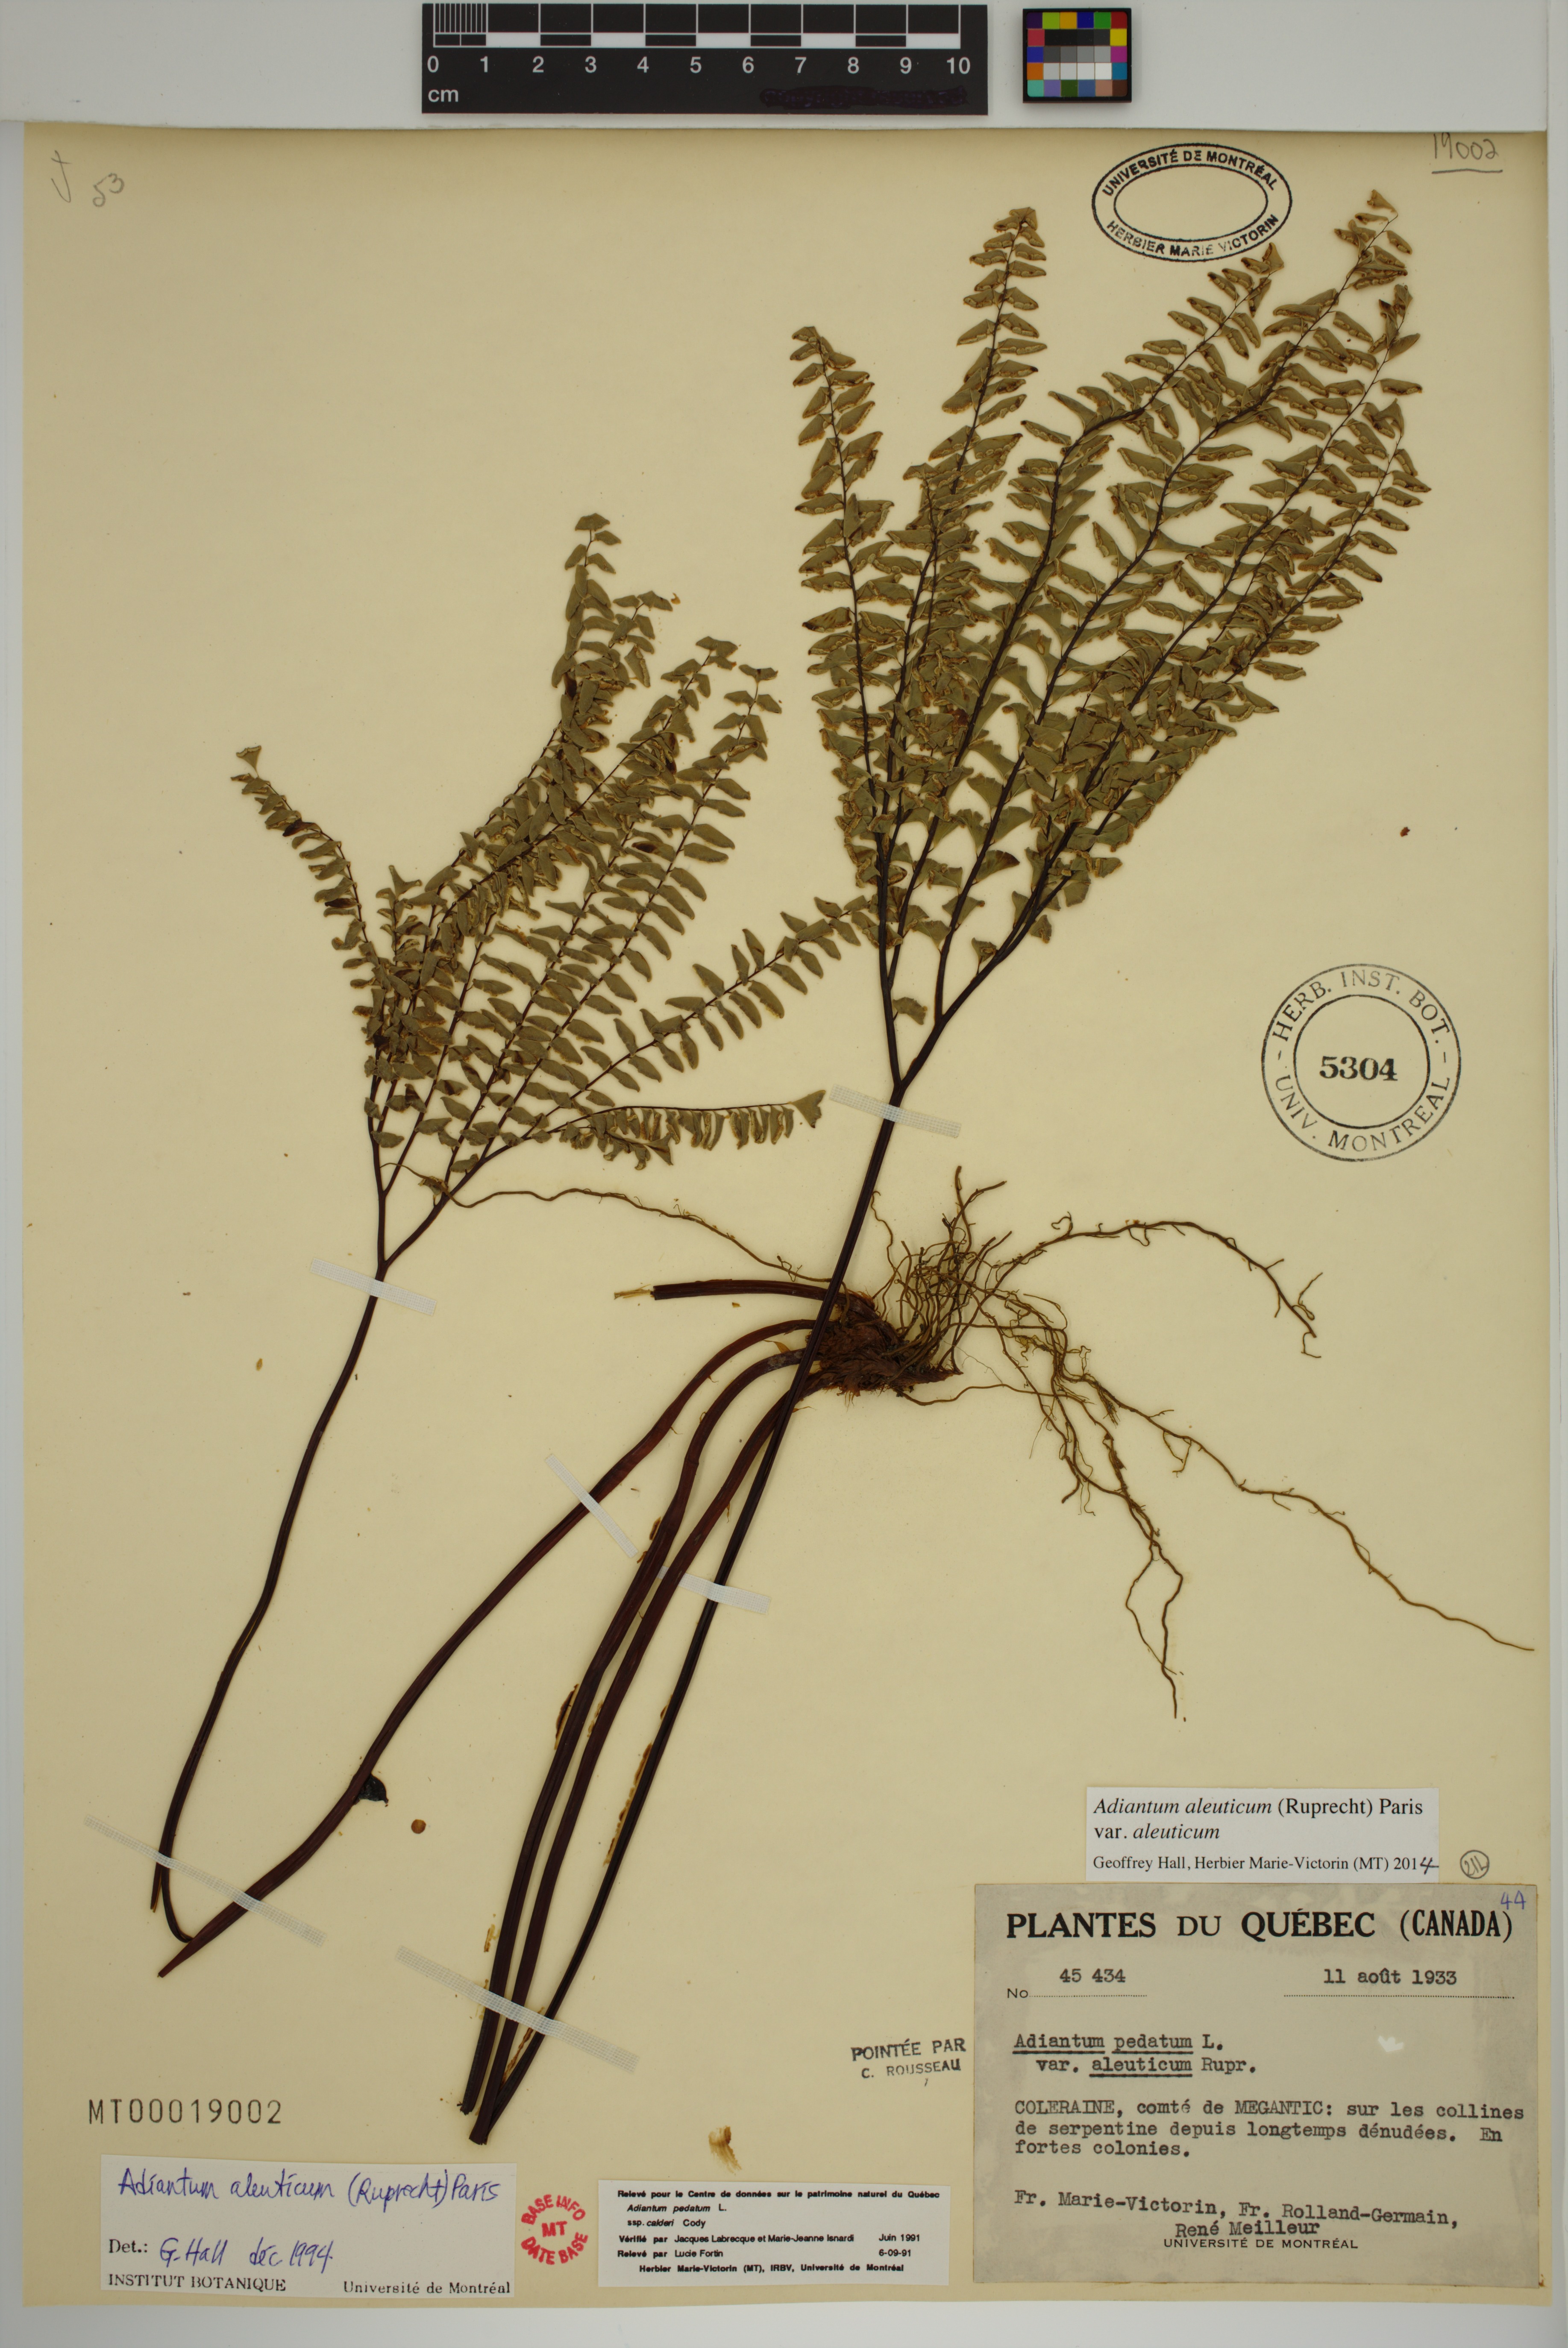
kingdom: Plantae
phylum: Tracheophyta
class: Polypodiopsida
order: Polypodiales
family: Pteridaceae
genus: Adiantum
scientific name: Adiantum aleuticum
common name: Aleutian maidenhair fern
